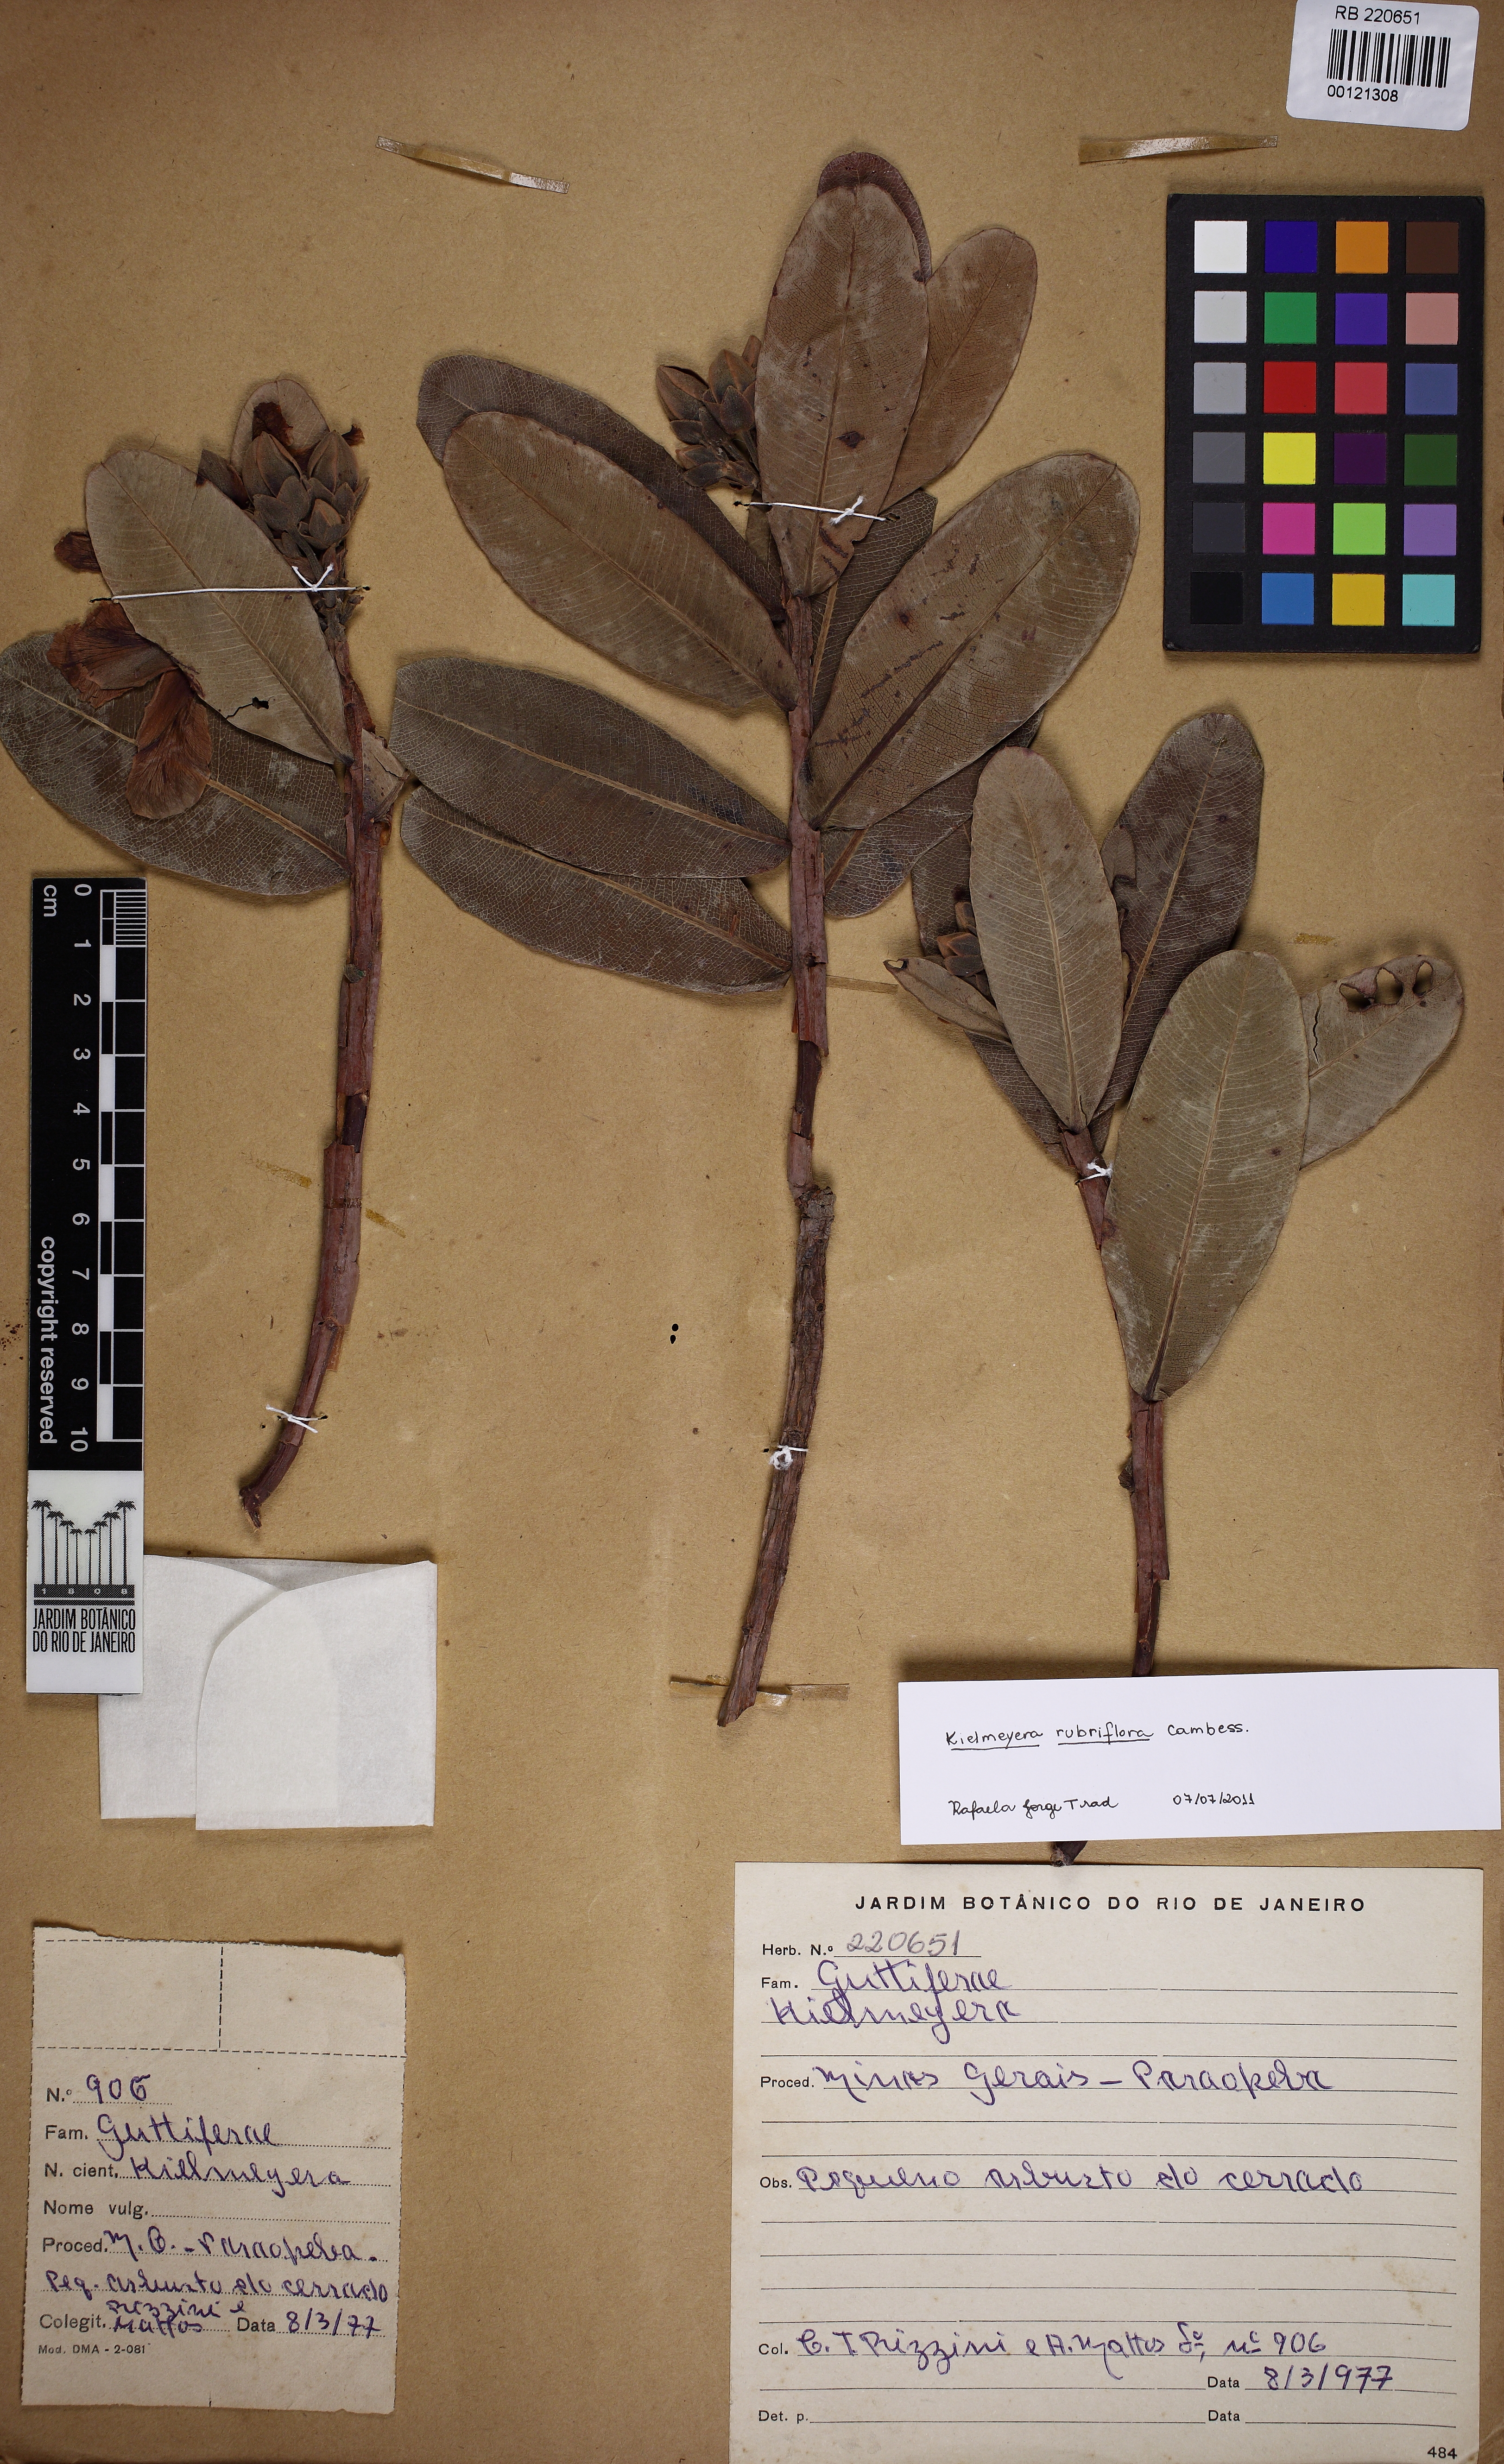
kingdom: Plantae
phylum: Tracheophyta
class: Magnoliopsida
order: Malpighiales
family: Calophyllaceae
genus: Kielmeyera
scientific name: Kielmeyera rubriflora
